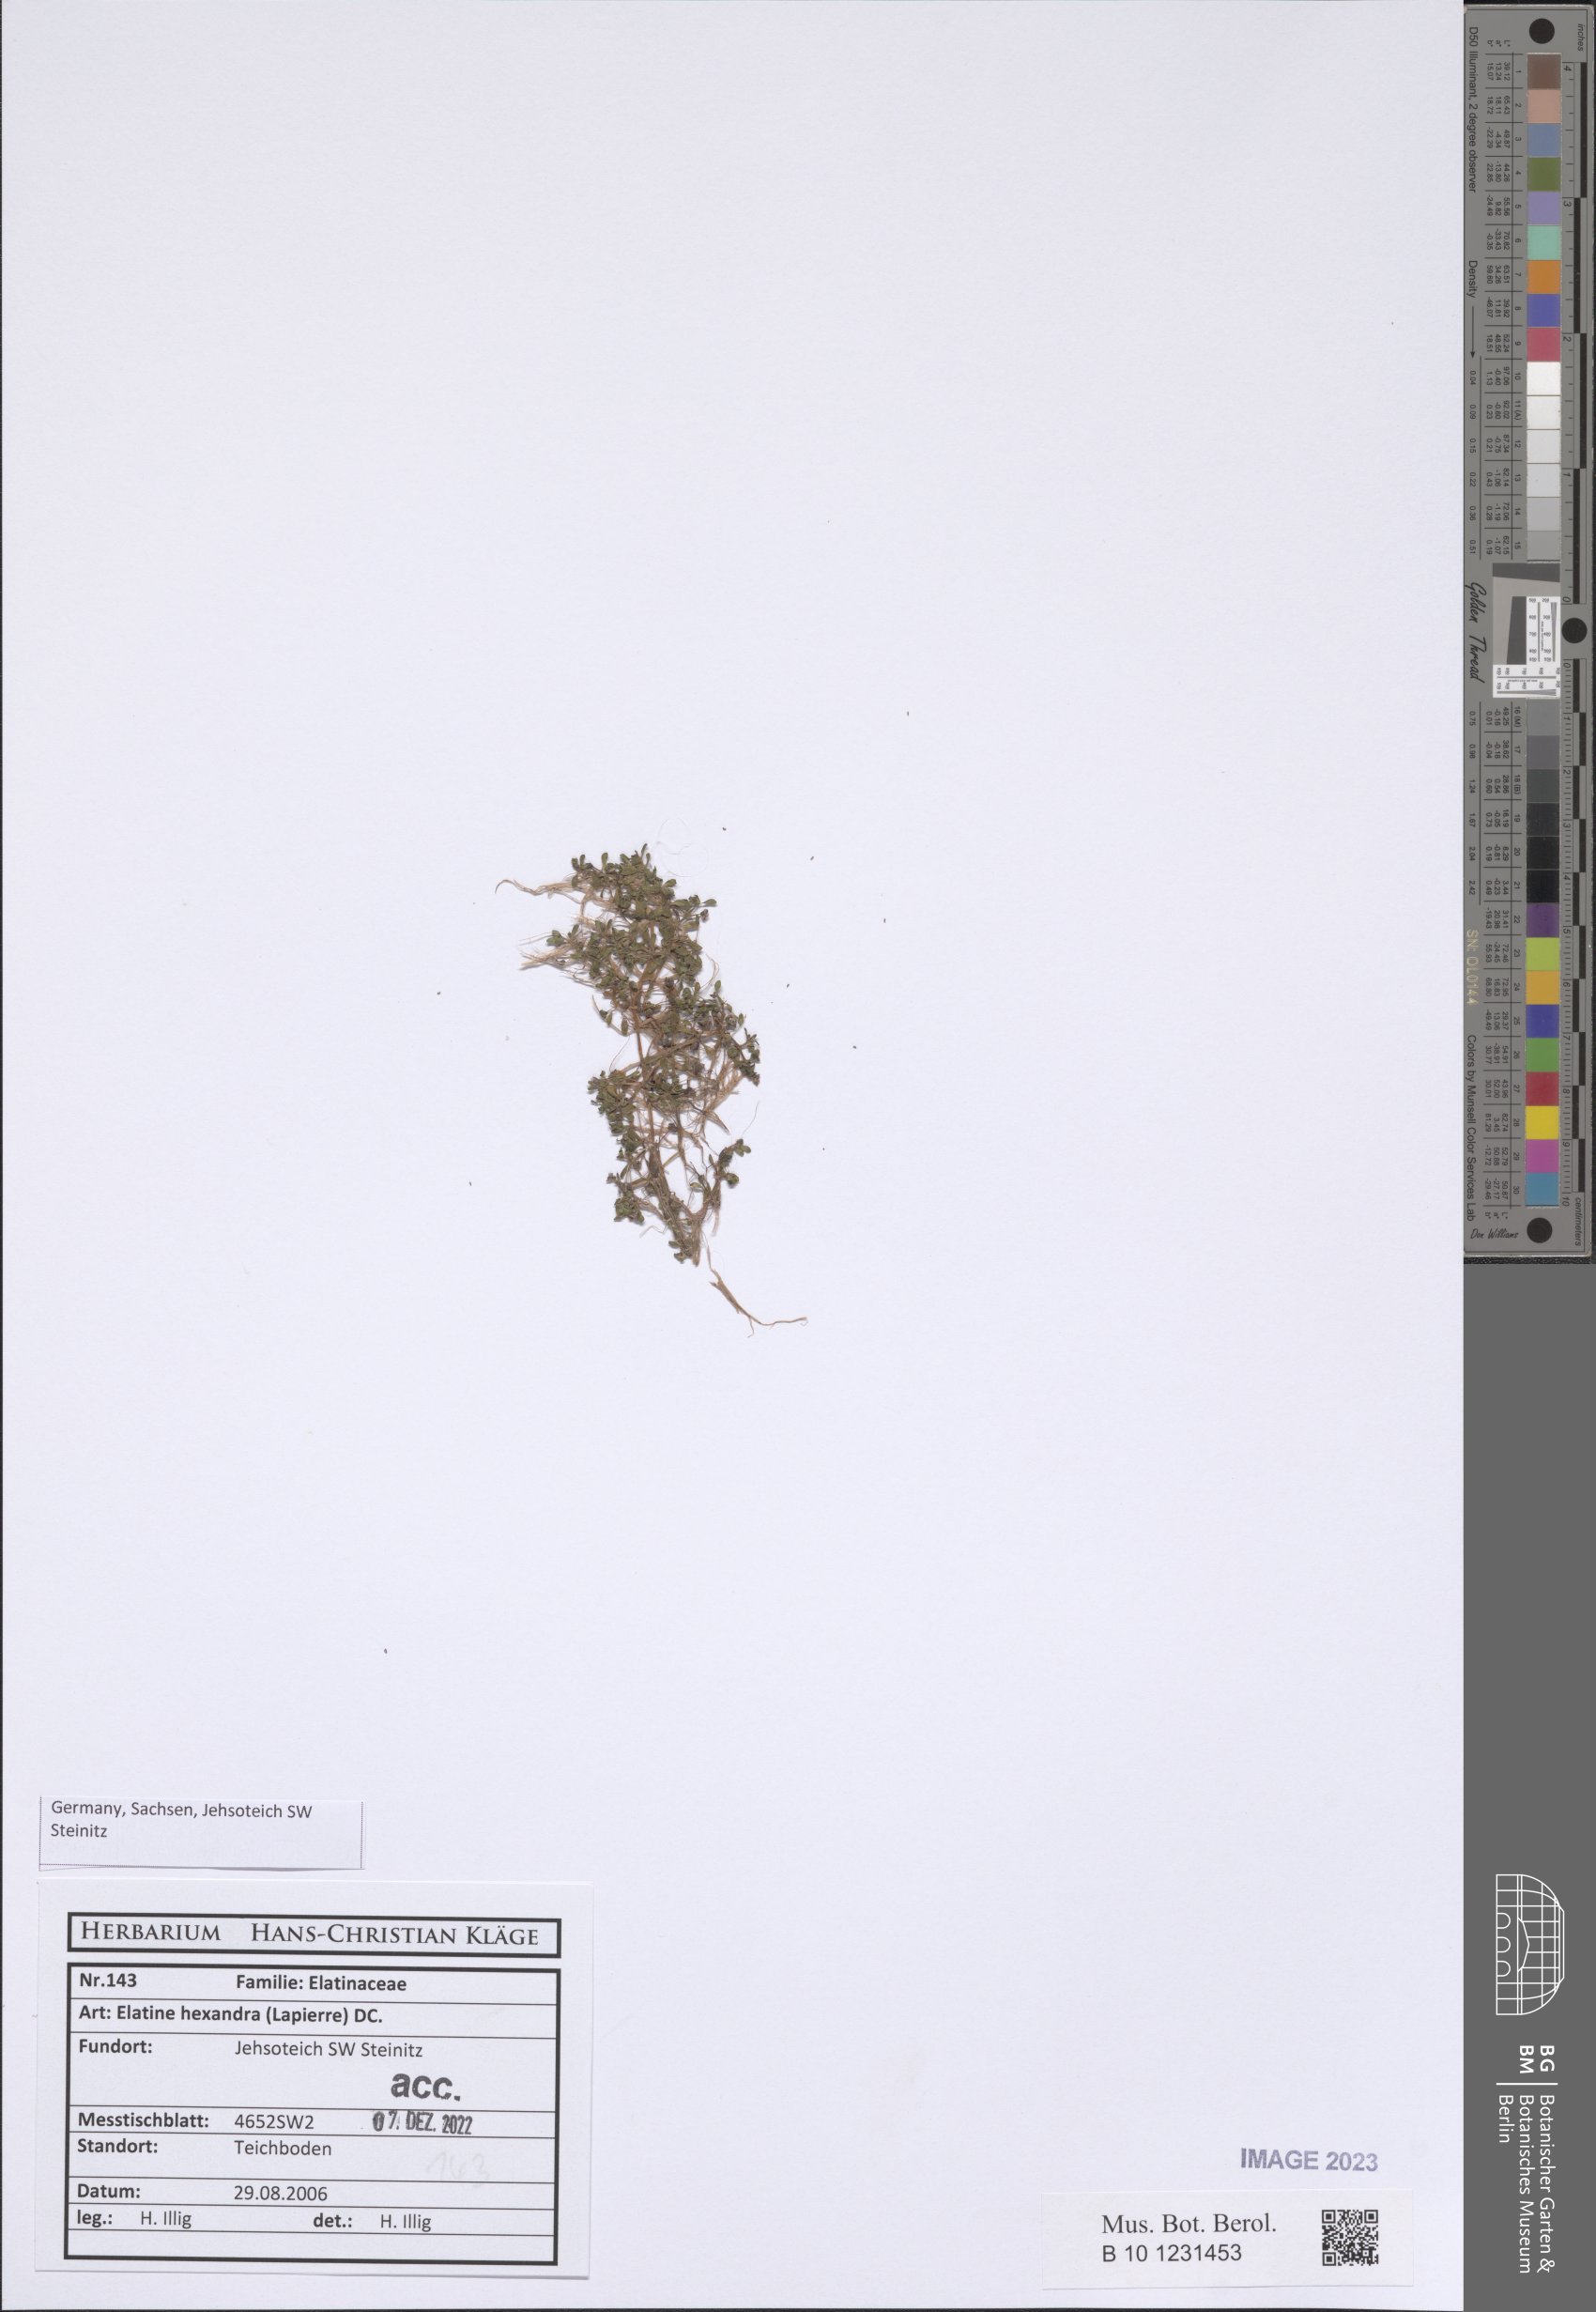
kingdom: Plantae
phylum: Tracheophyta
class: Magnoliopsida
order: Malpighiales
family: Elatinaceae
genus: Elatine
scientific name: Elatine hexandra
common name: Six-stamened waterwort
